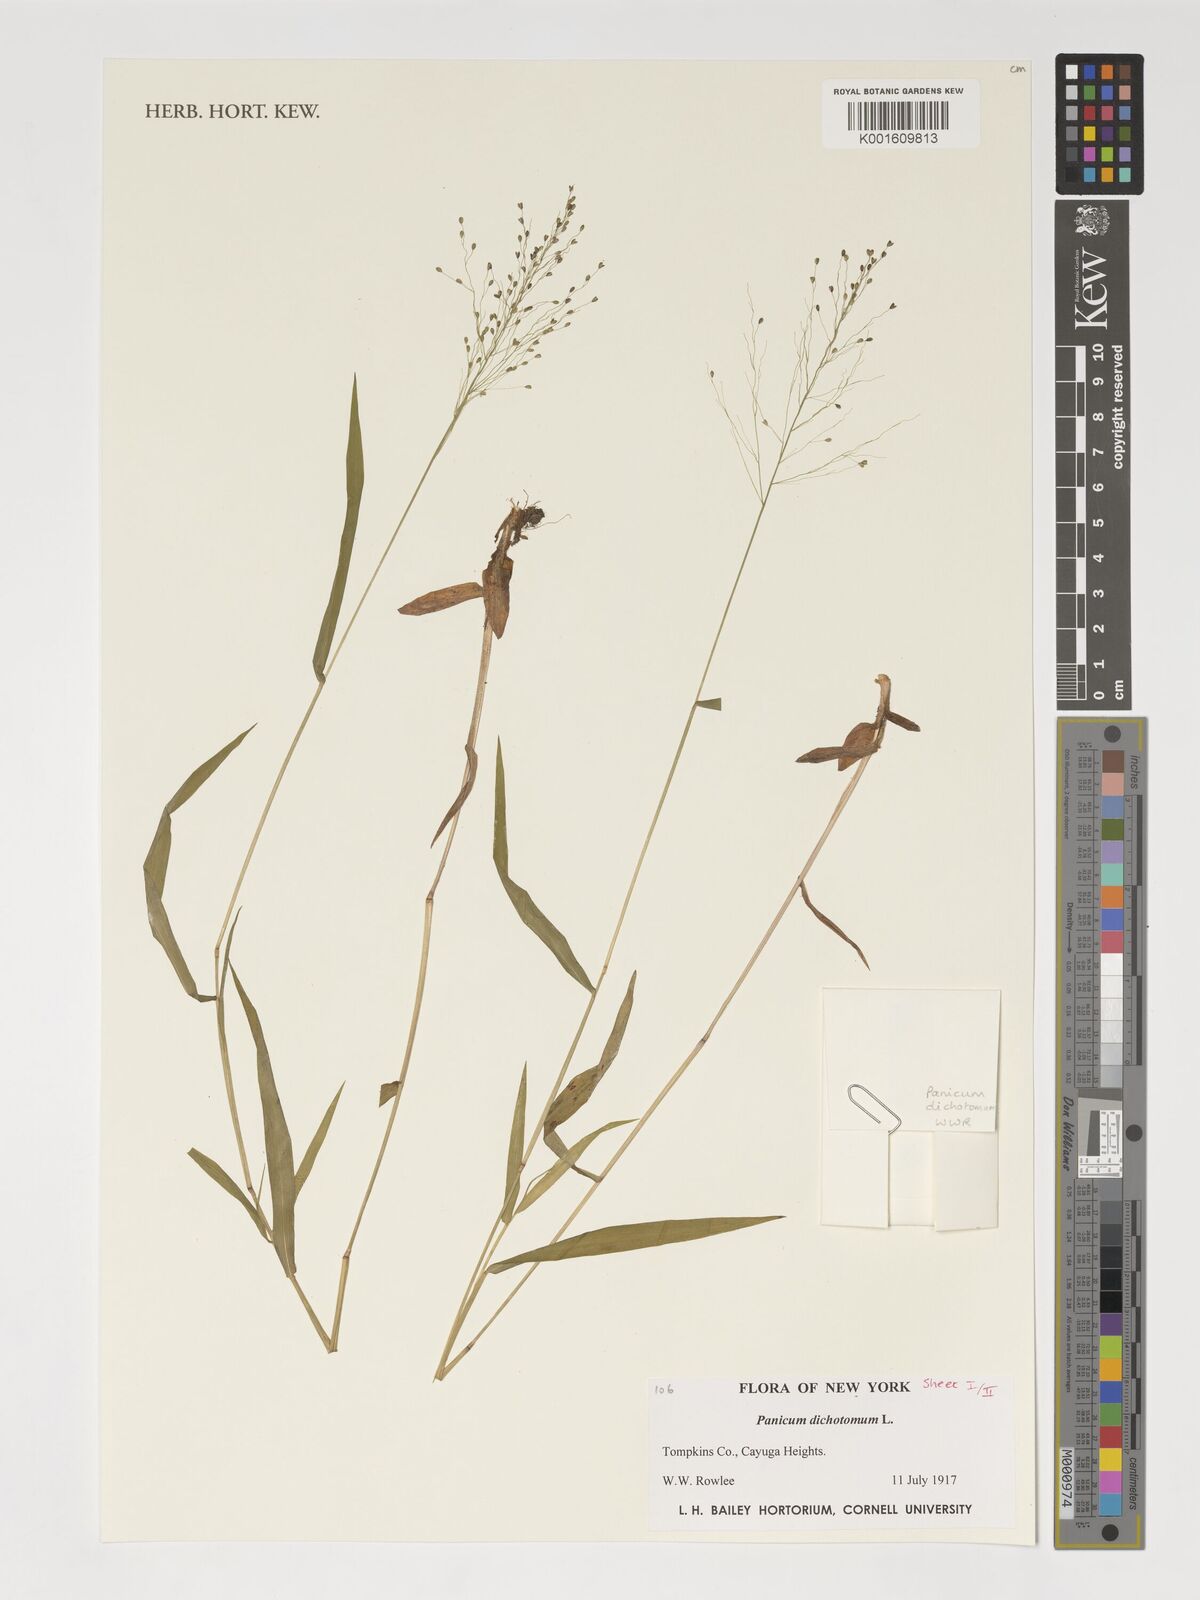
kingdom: Plantae
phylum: Tracheophyta
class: Liliopsida
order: Poales
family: Poaceae
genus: Dichanthelium
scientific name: Dichanthelium dichotomum
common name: Cypress panicgrass
